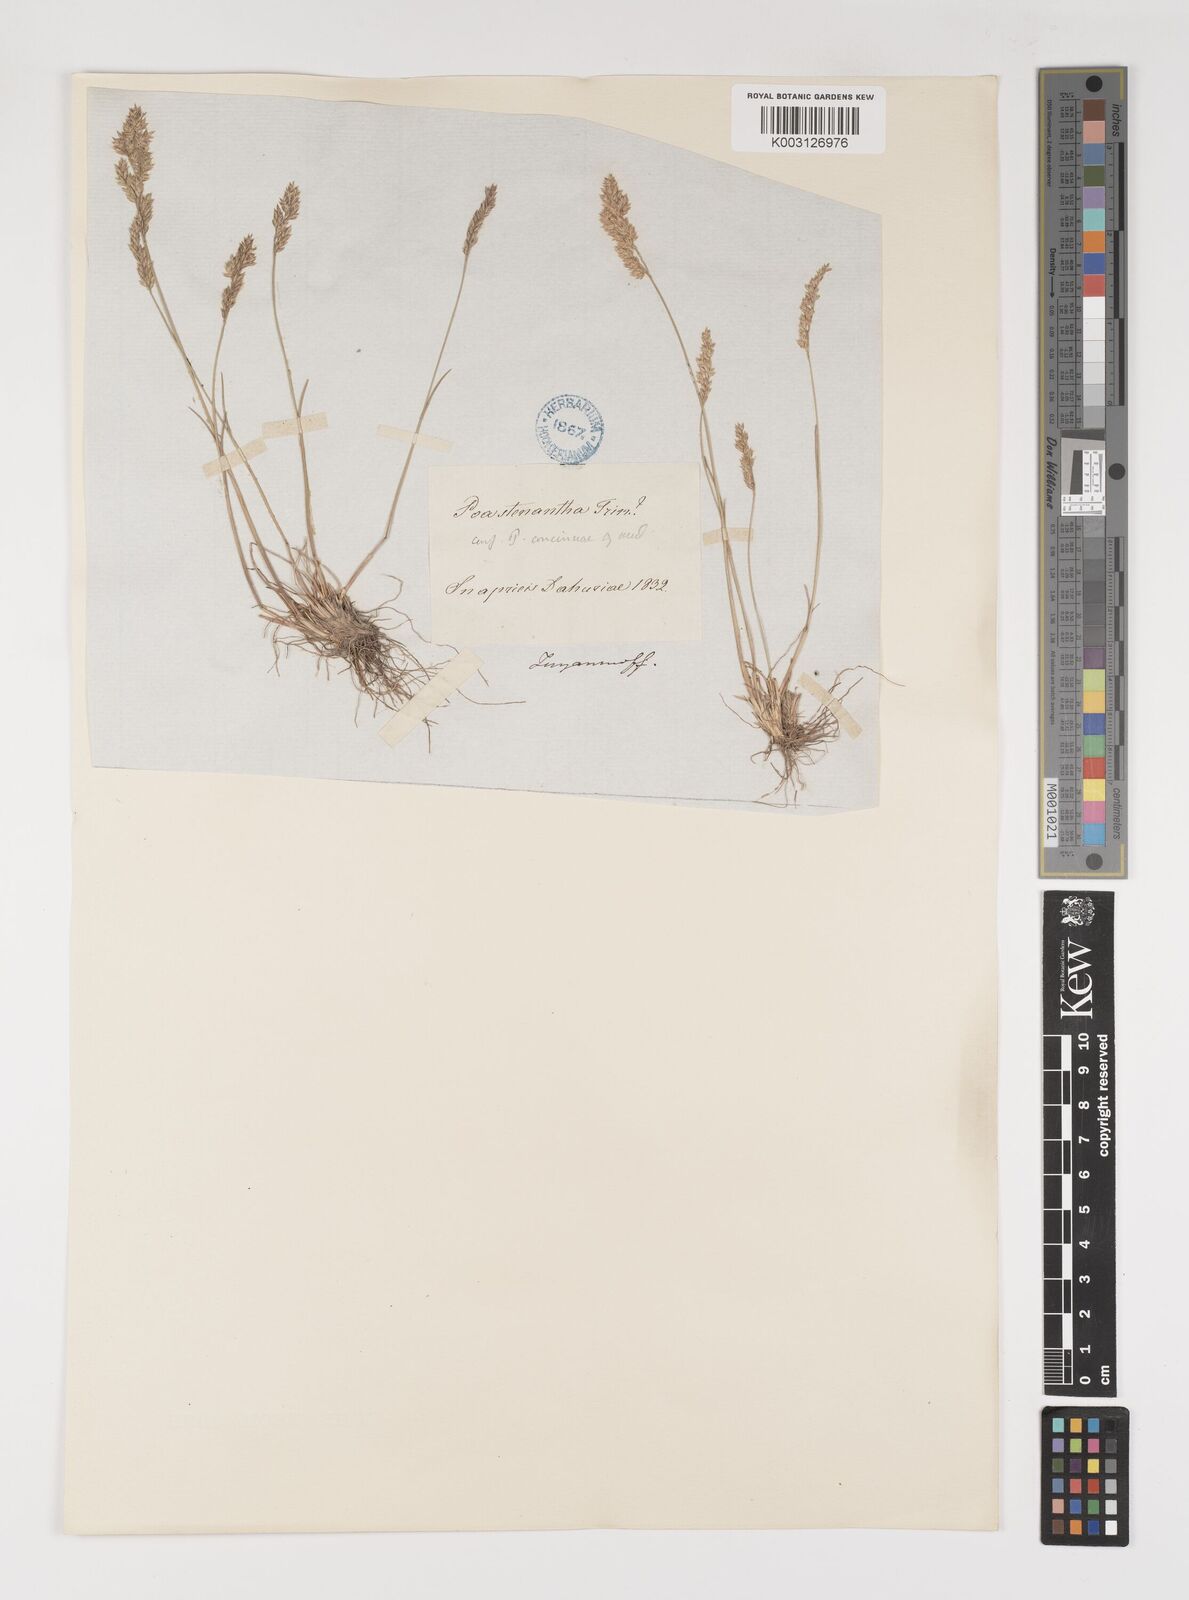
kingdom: Plantae
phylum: Tracheophyta
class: Liliopsida
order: Poales
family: Poaceae
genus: Poa
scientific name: Poa perconcinna
